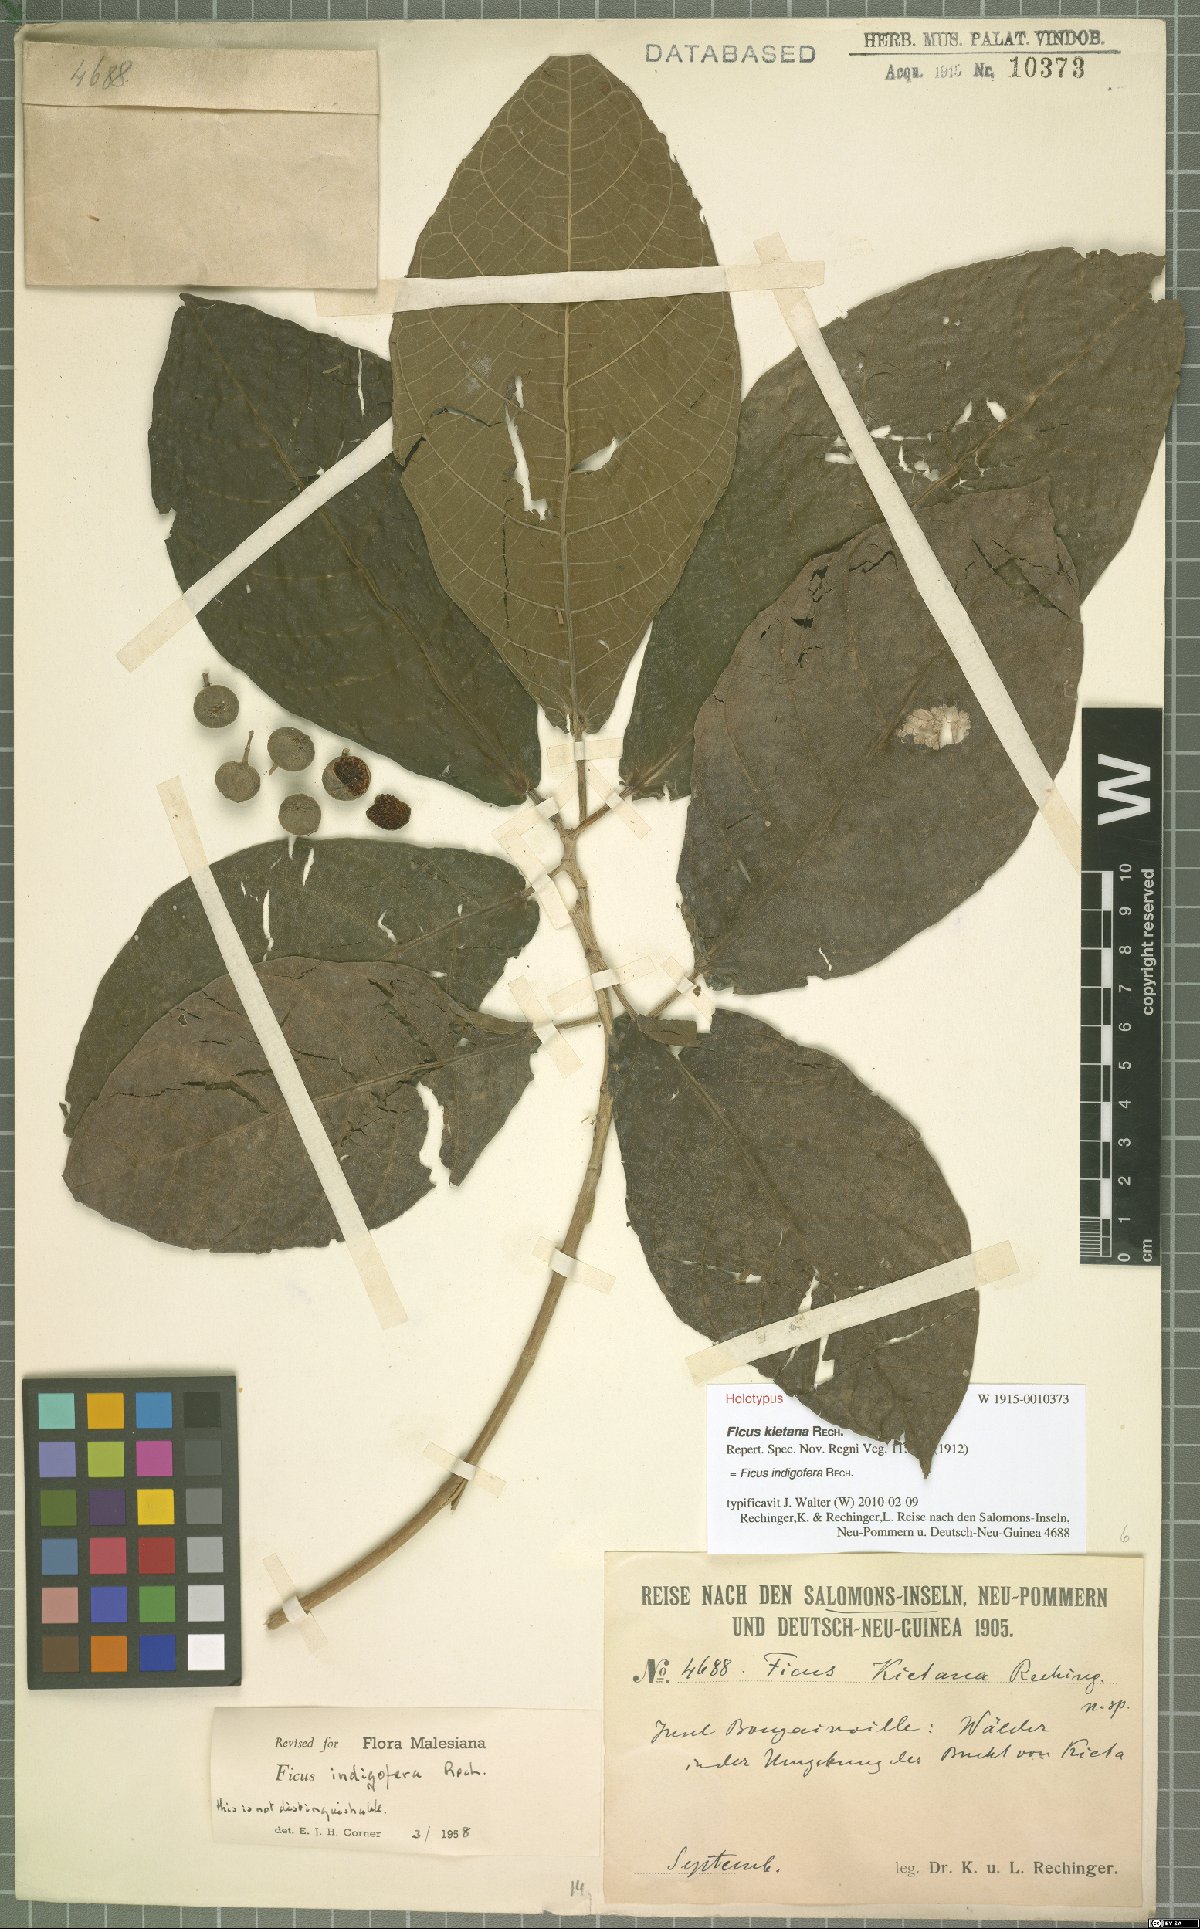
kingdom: Plantae
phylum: Tracheophyta
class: Magnoliopsida
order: Rosales
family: Moraceae
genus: Ficus
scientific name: Ficus indigofera
